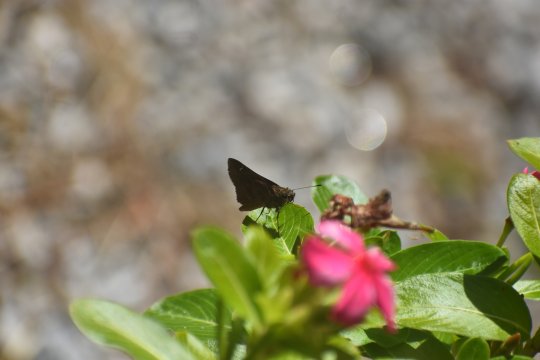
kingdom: Animalia
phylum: Arthropoda
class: Insecta
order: Lepidoptera
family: Hesperiidae
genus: Lerema
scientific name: Lerema accius
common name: Clouded Skipper
